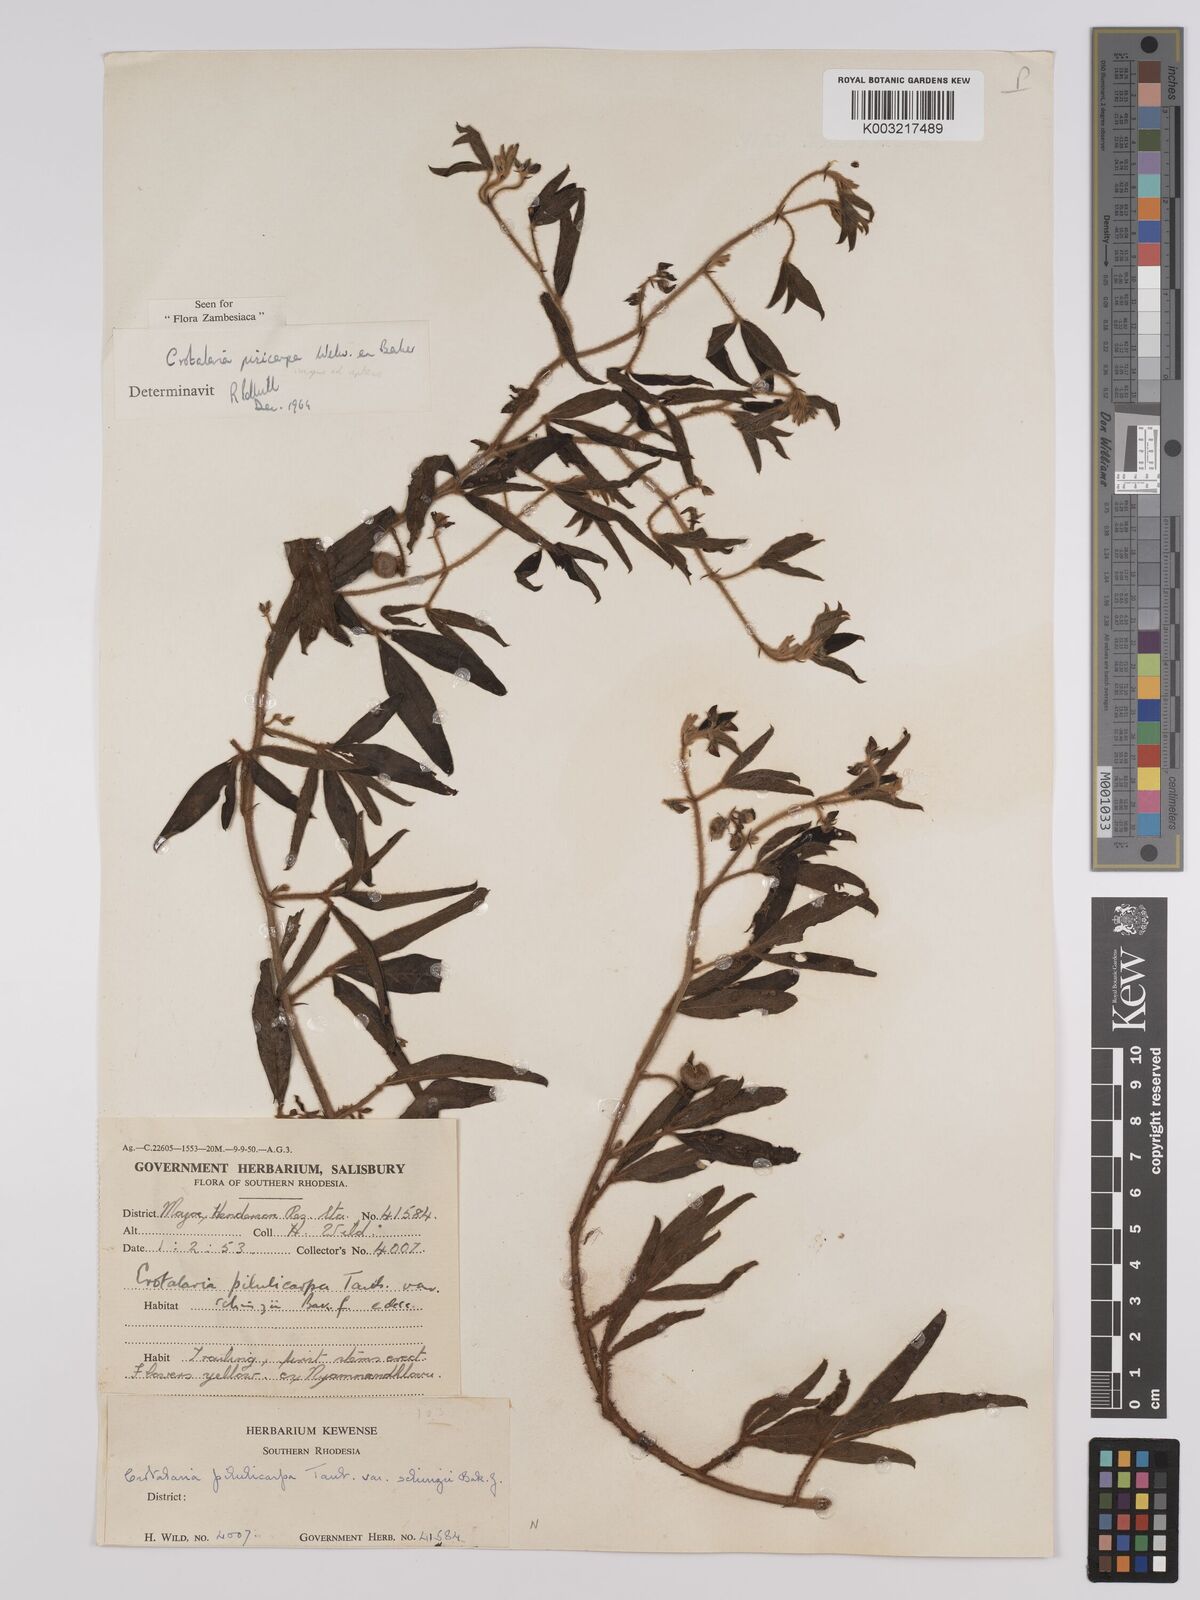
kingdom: Plantae
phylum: Tracheophyta
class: Magnoliopsida
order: Fabales
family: Fabaceae
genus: Crotalaria
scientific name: Crotalaria pisicarpa
